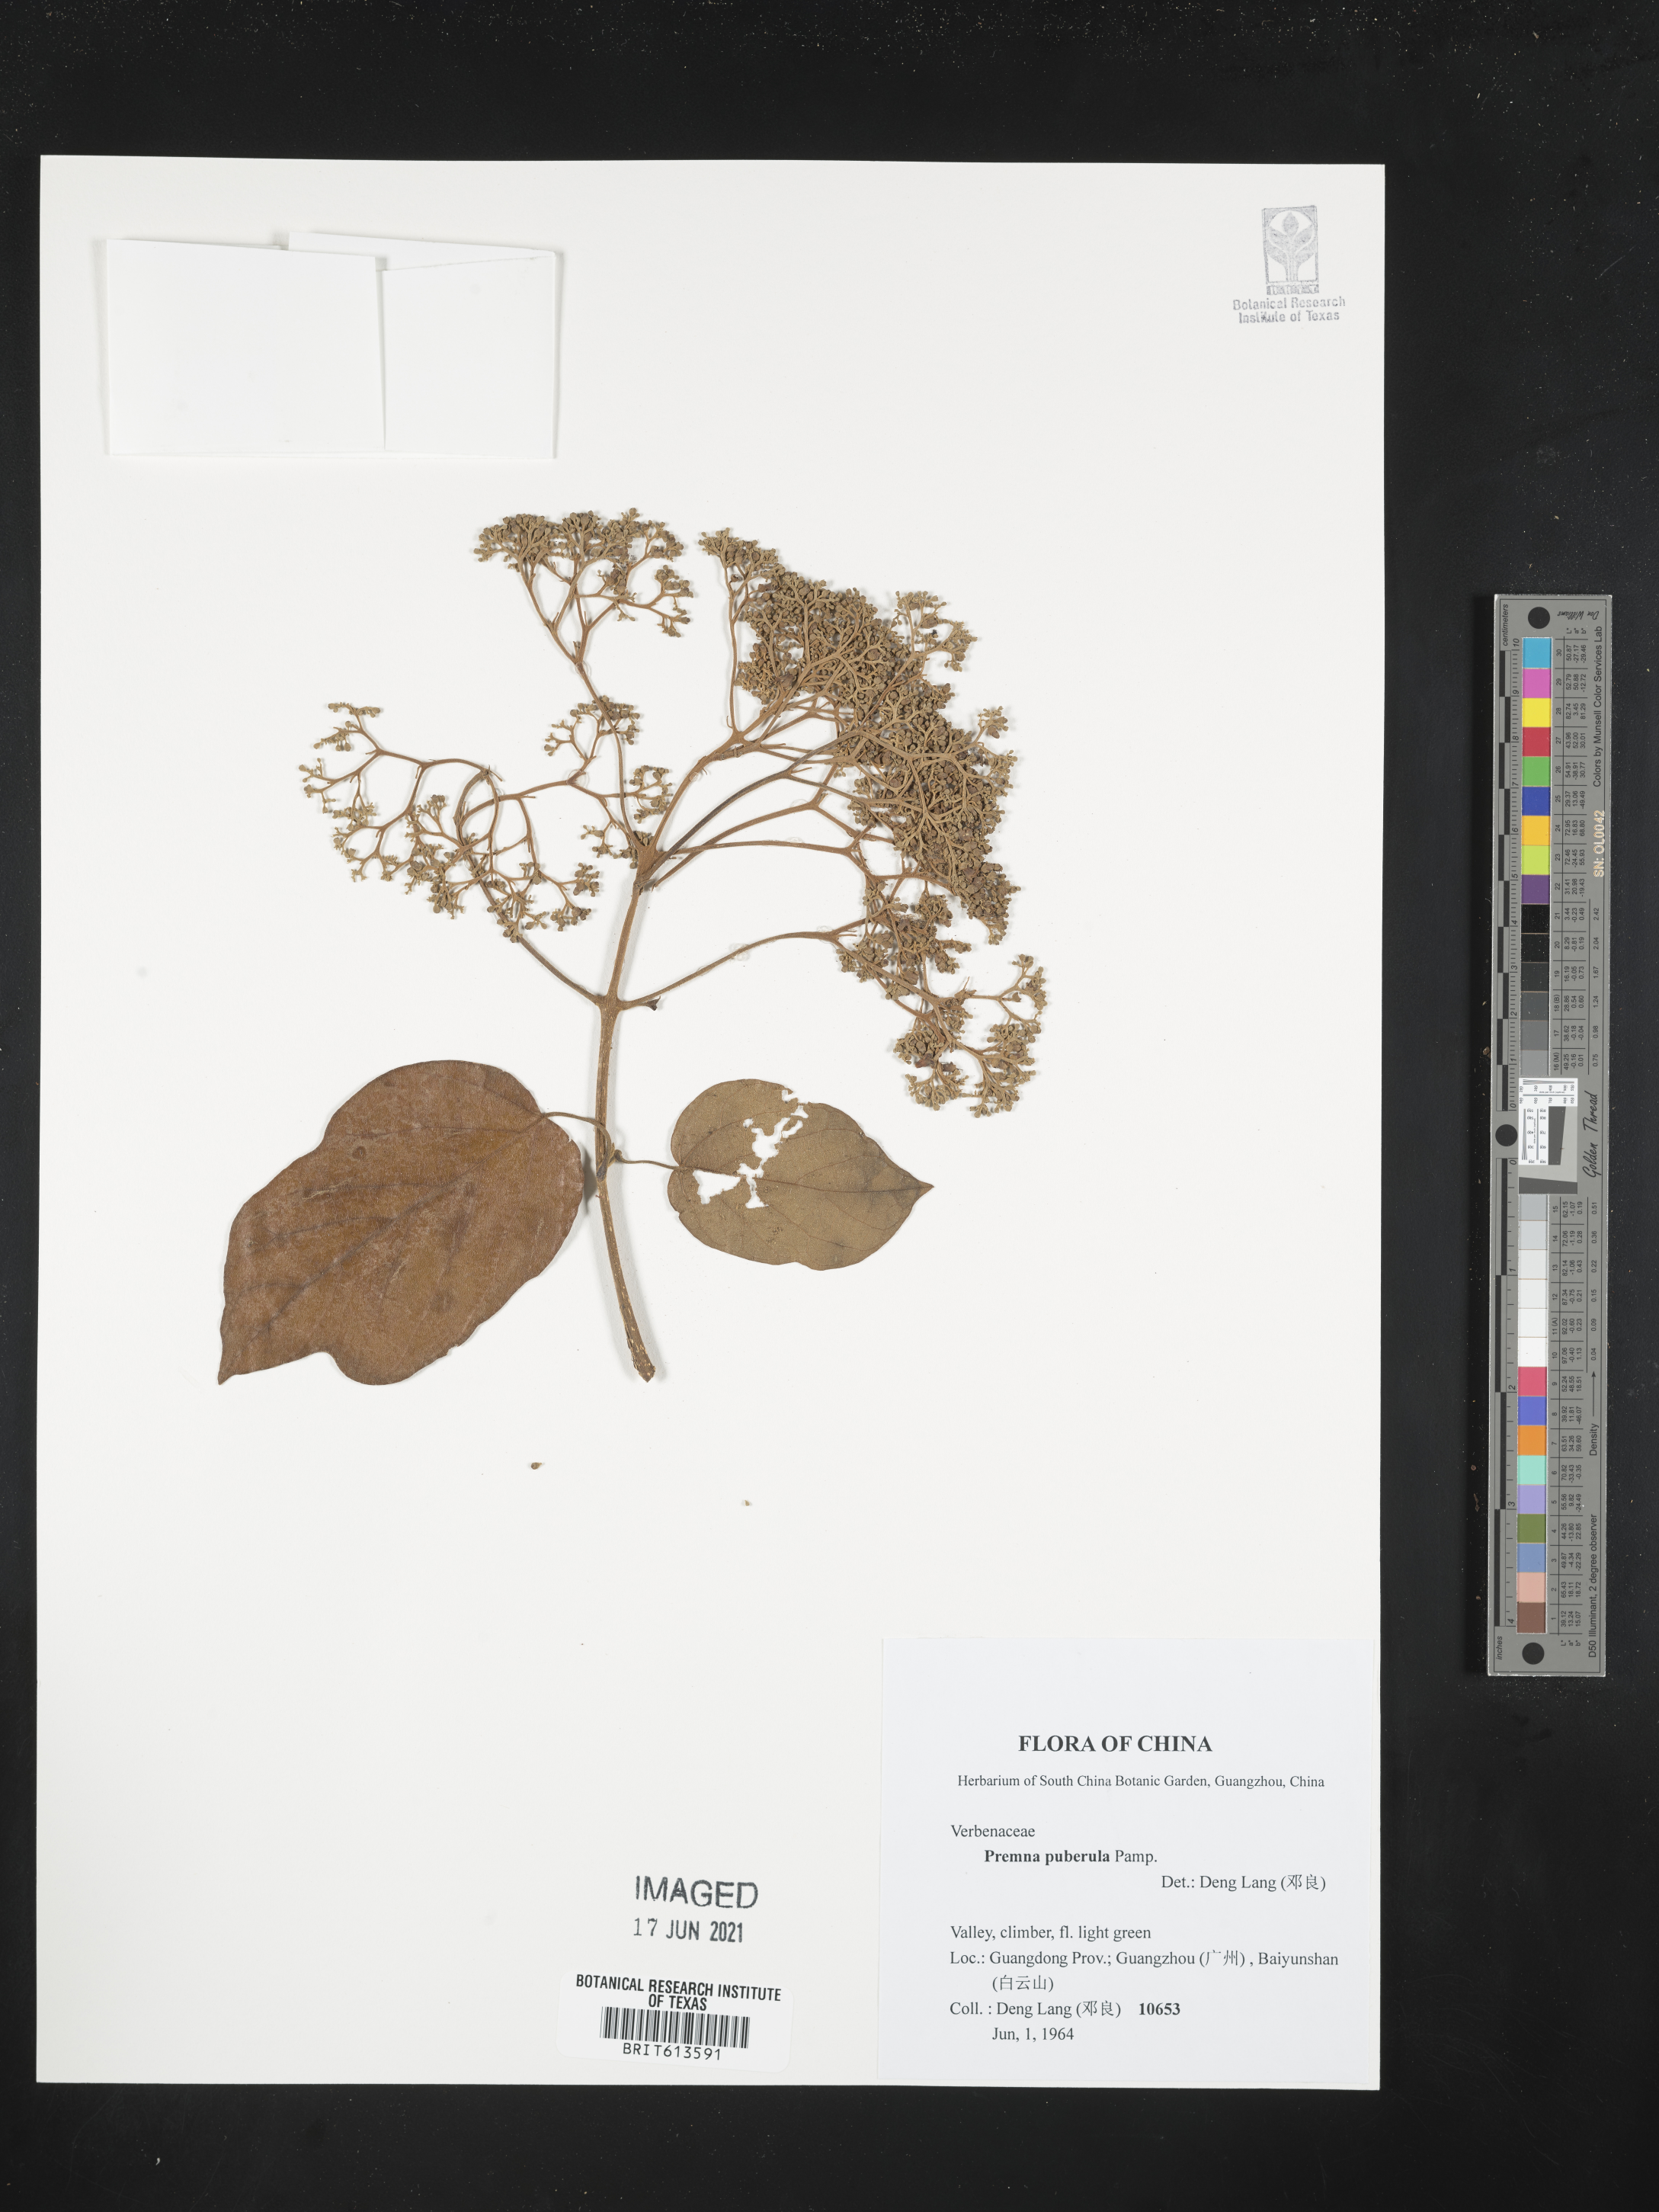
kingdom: Plantae
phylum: Tracheophyta
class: Magnoliopsida
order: Lamiales
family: Lamiaceae
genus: Premna
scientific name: Premna puberula
